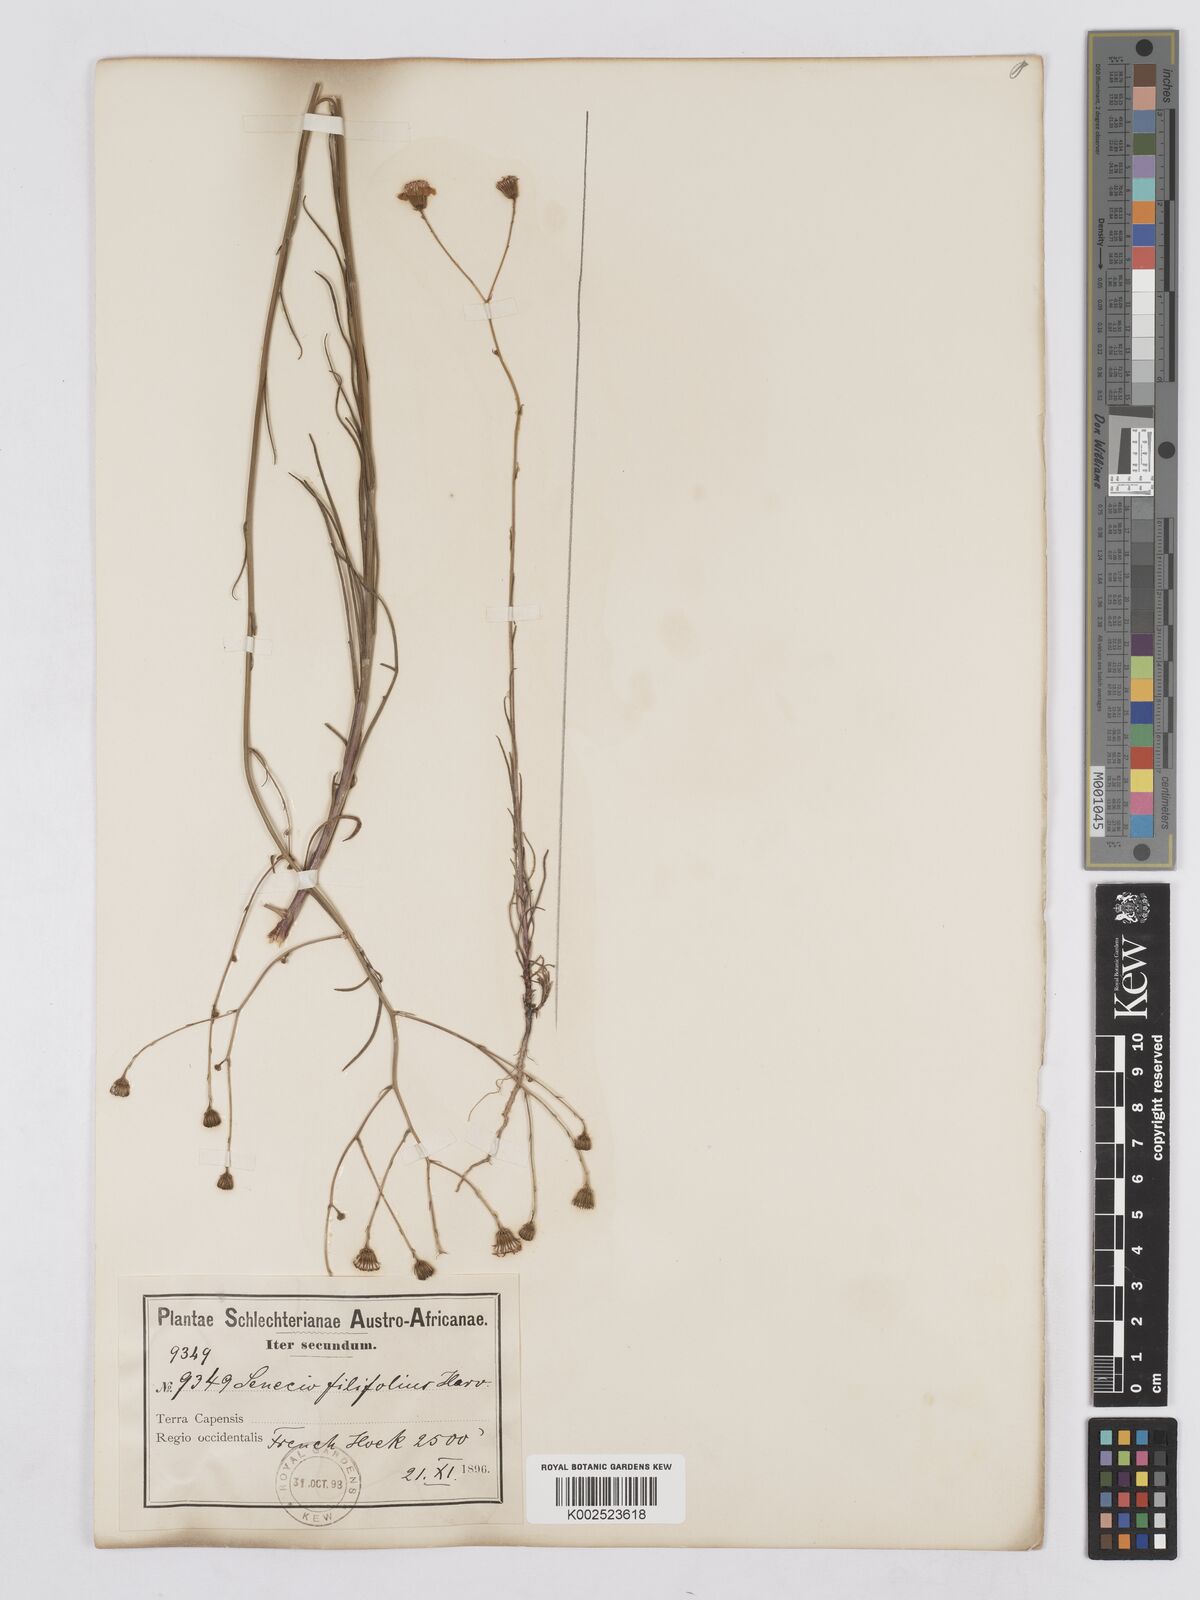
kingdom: Plantae
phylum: Tracheophyta
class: Magnoliopsida
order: Asterales
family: Asteraceae
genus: Senecio
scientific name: Senecio
